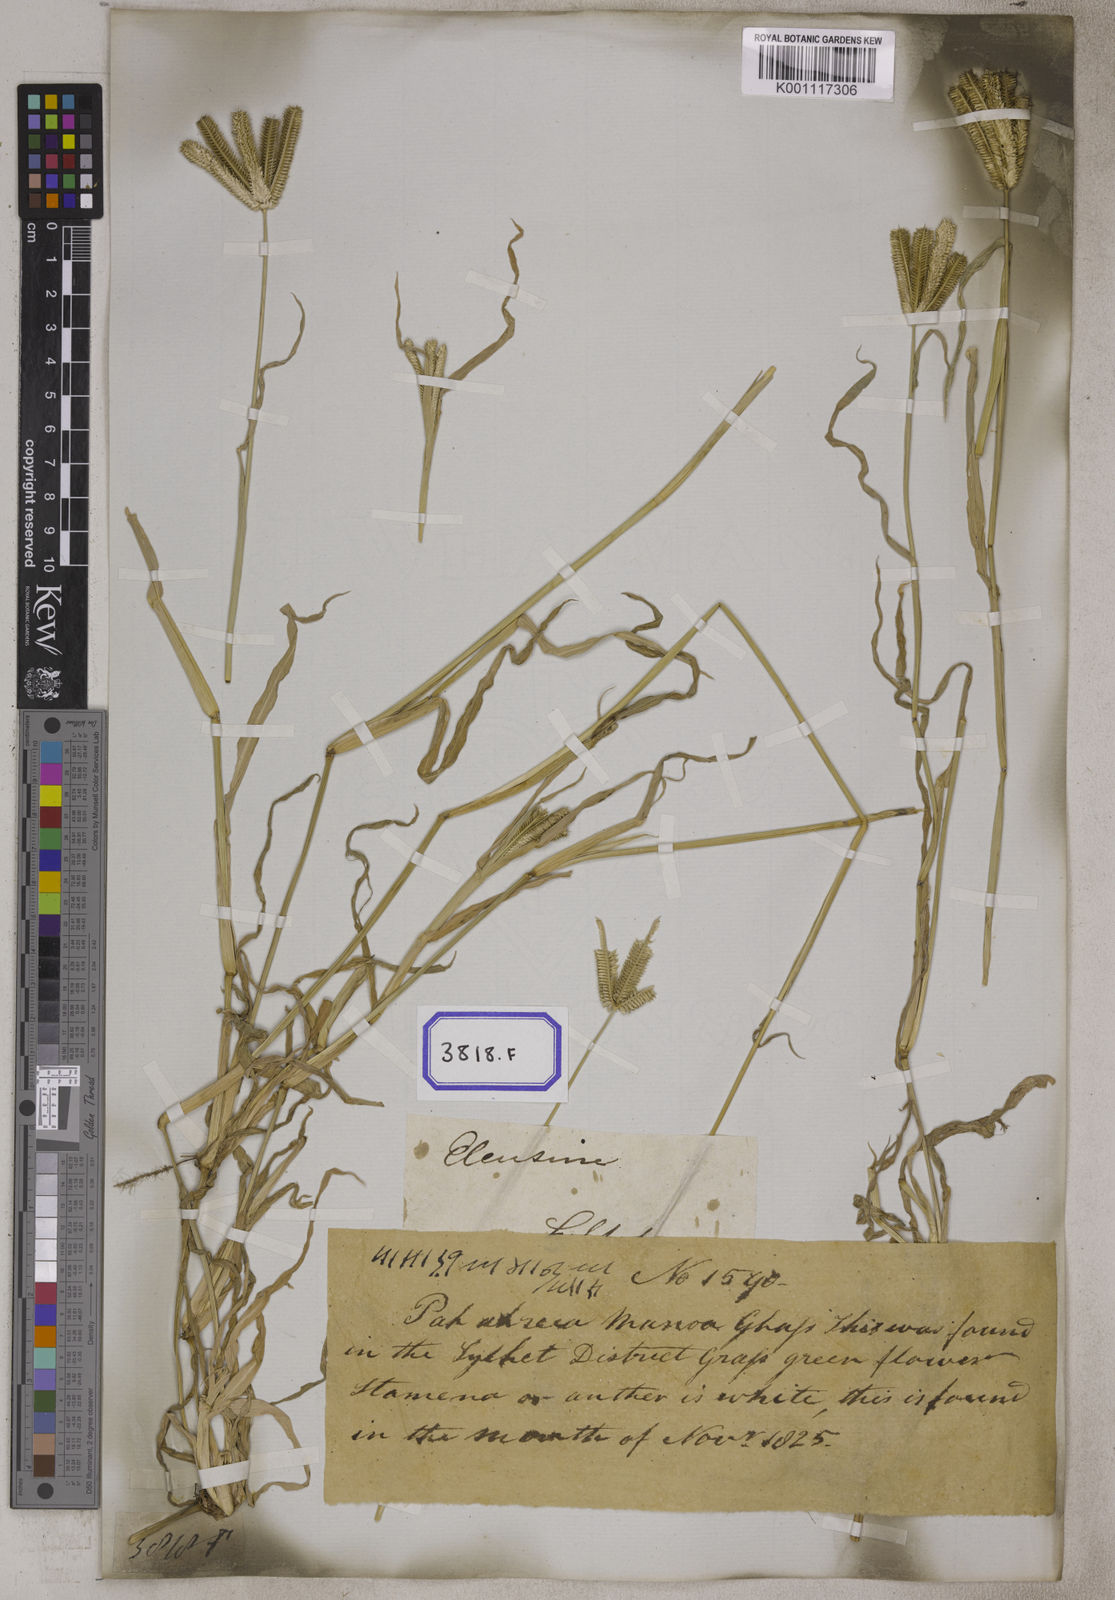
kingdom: Plantae
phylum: Tracheophyta
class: Liliopsida
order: Poales
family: Poaceae
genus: Eleusine
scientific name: Eleusine
